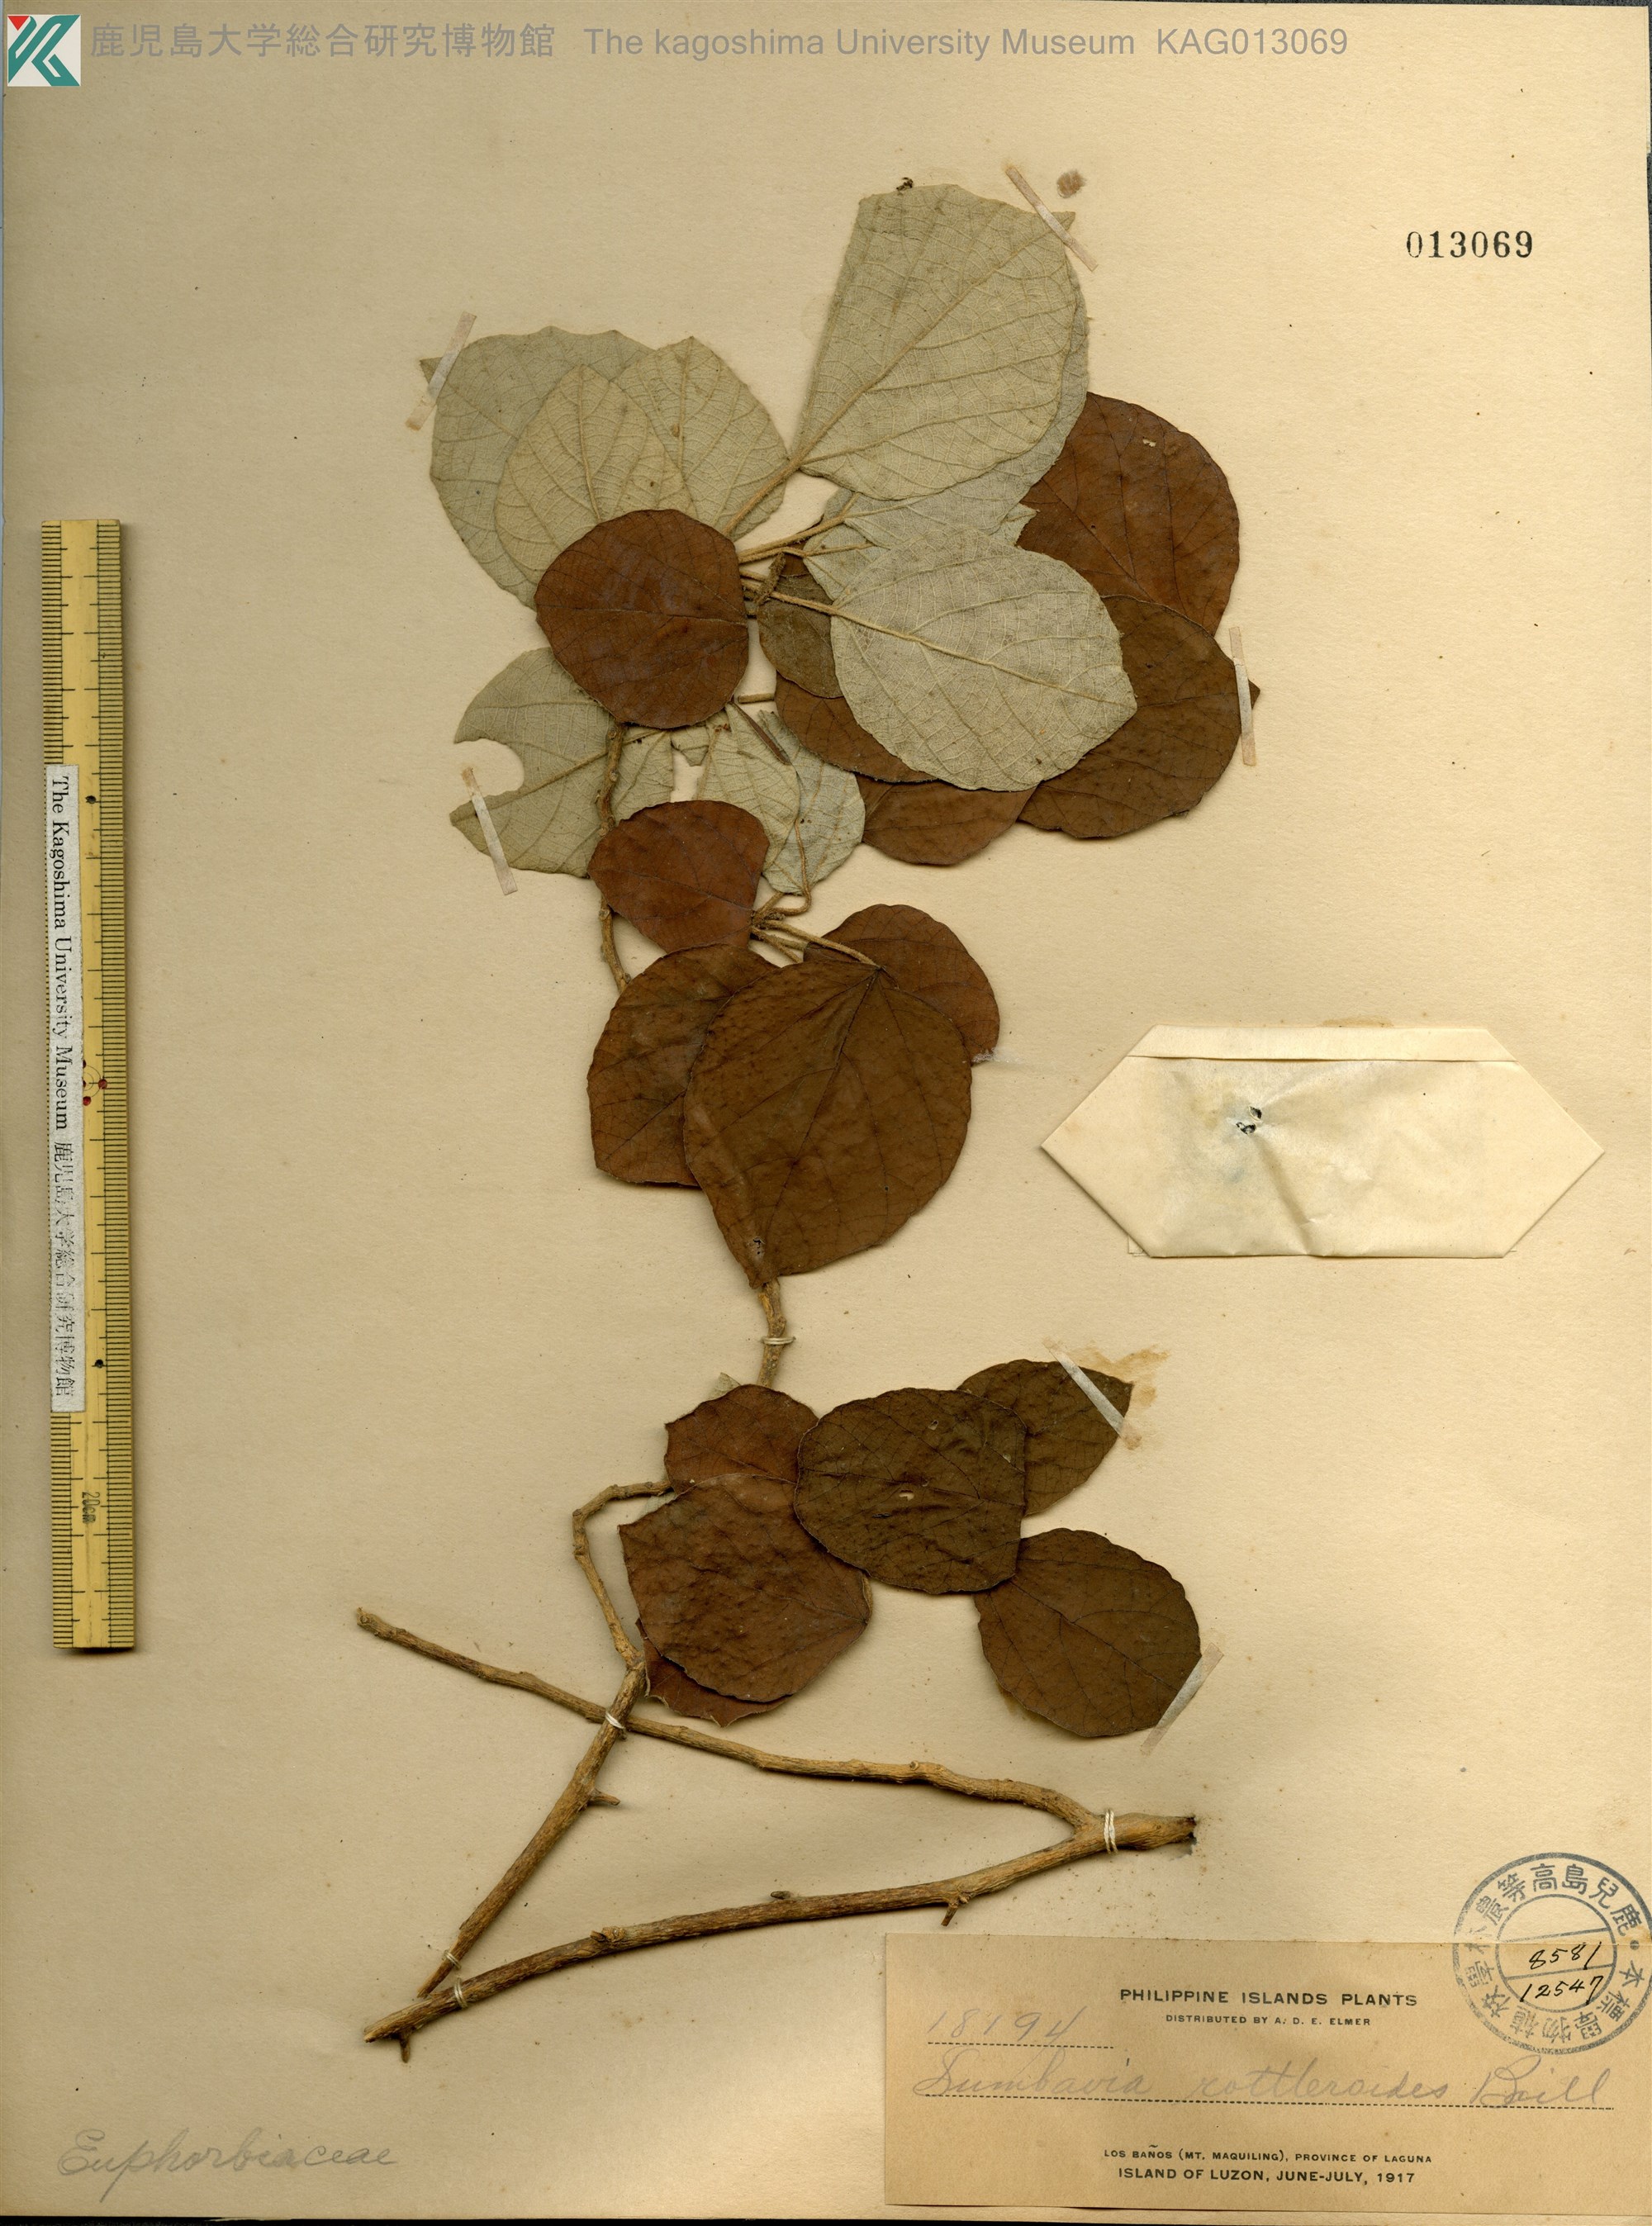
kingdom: Plantae
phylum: Tracheophyta
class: Magnoliopsida
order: Malpighiales
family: Euphorbiaceae
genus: Doryxylon
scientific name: Doryxylon spinosum
